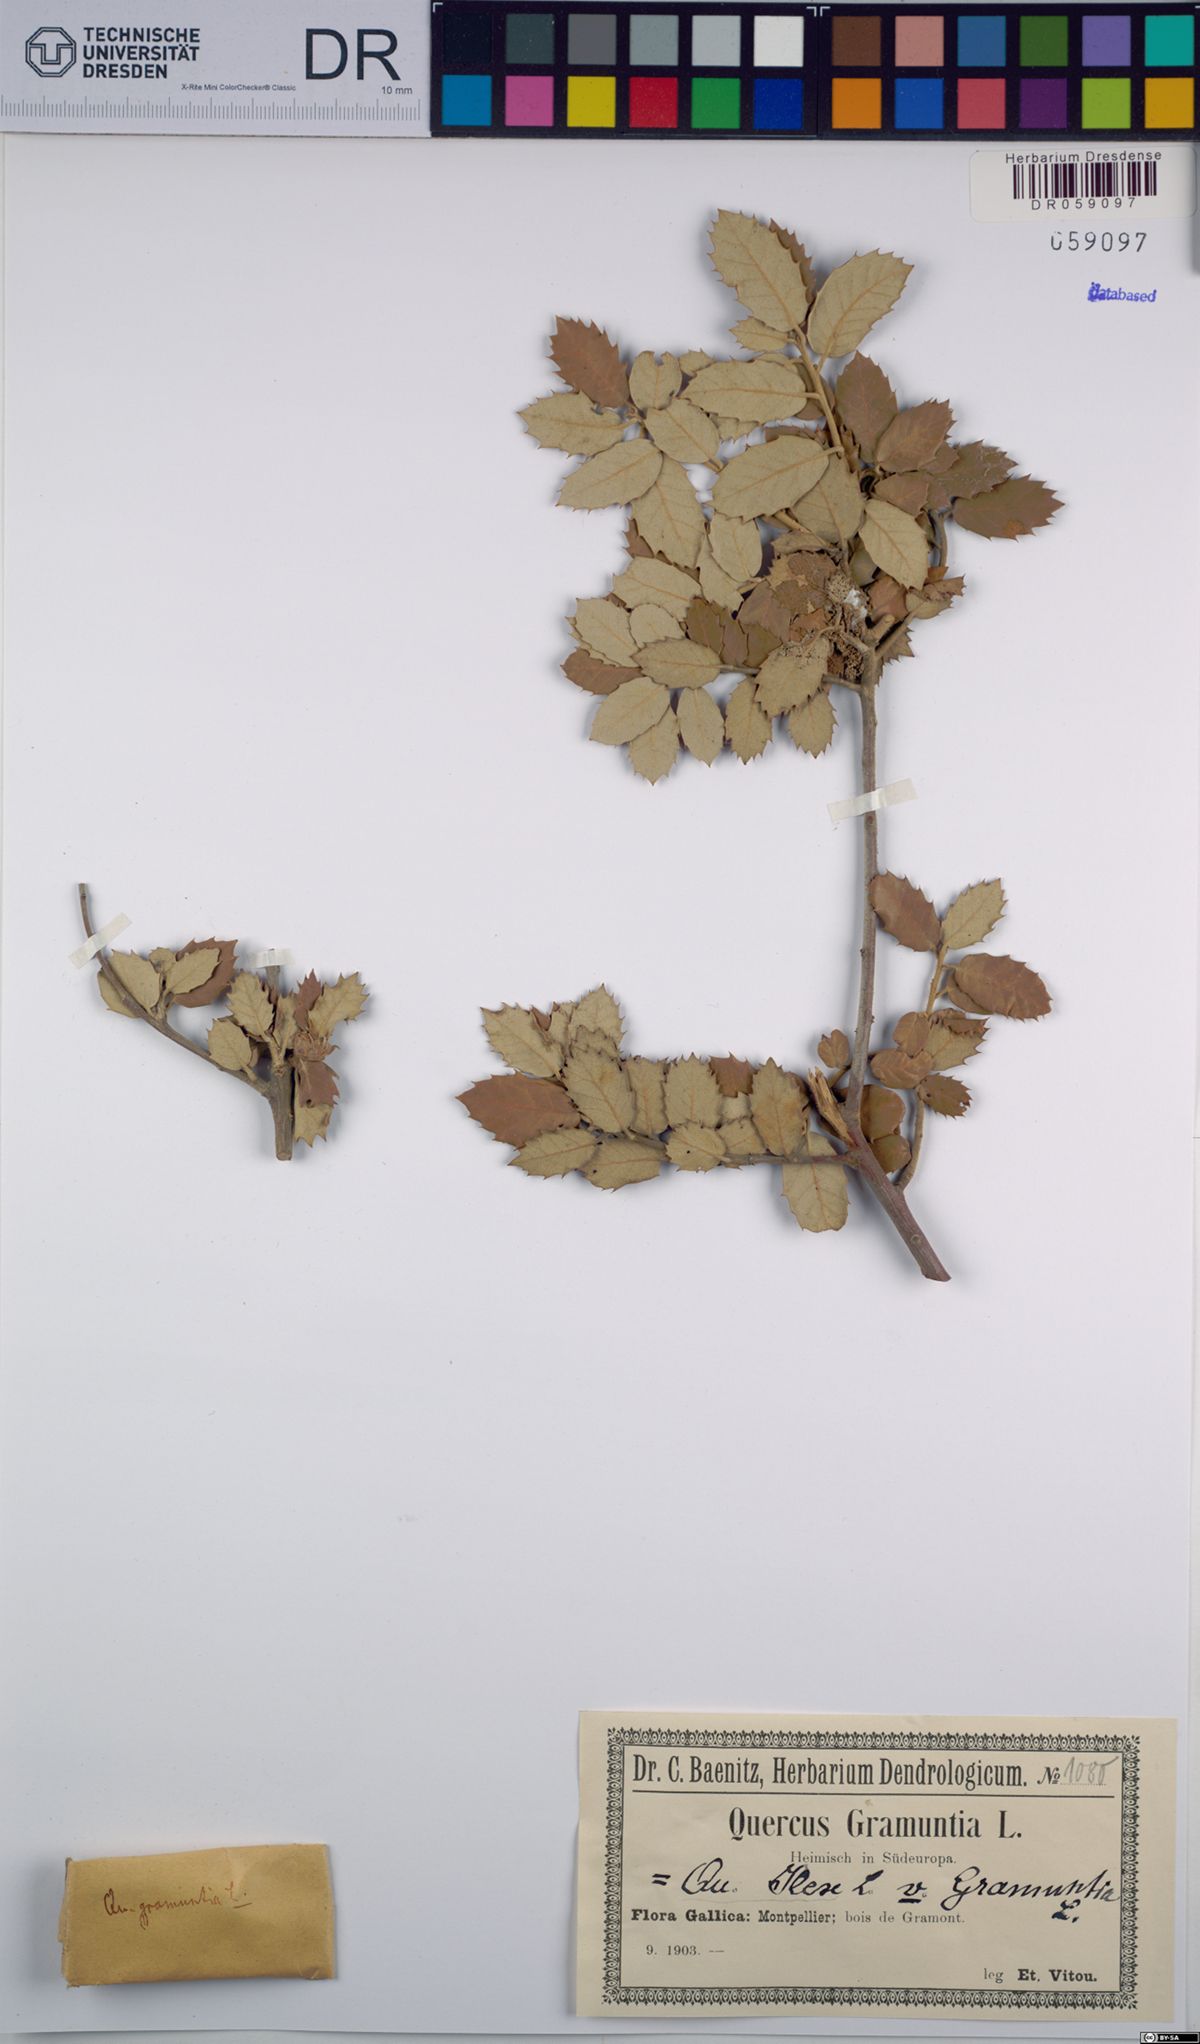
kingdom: Plantae
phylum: Tracheophyta
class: Magnoliopsida
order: Fagales
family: Fagaceae
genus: Quercus
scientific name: Quercus ilex
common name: Evergreen oak
